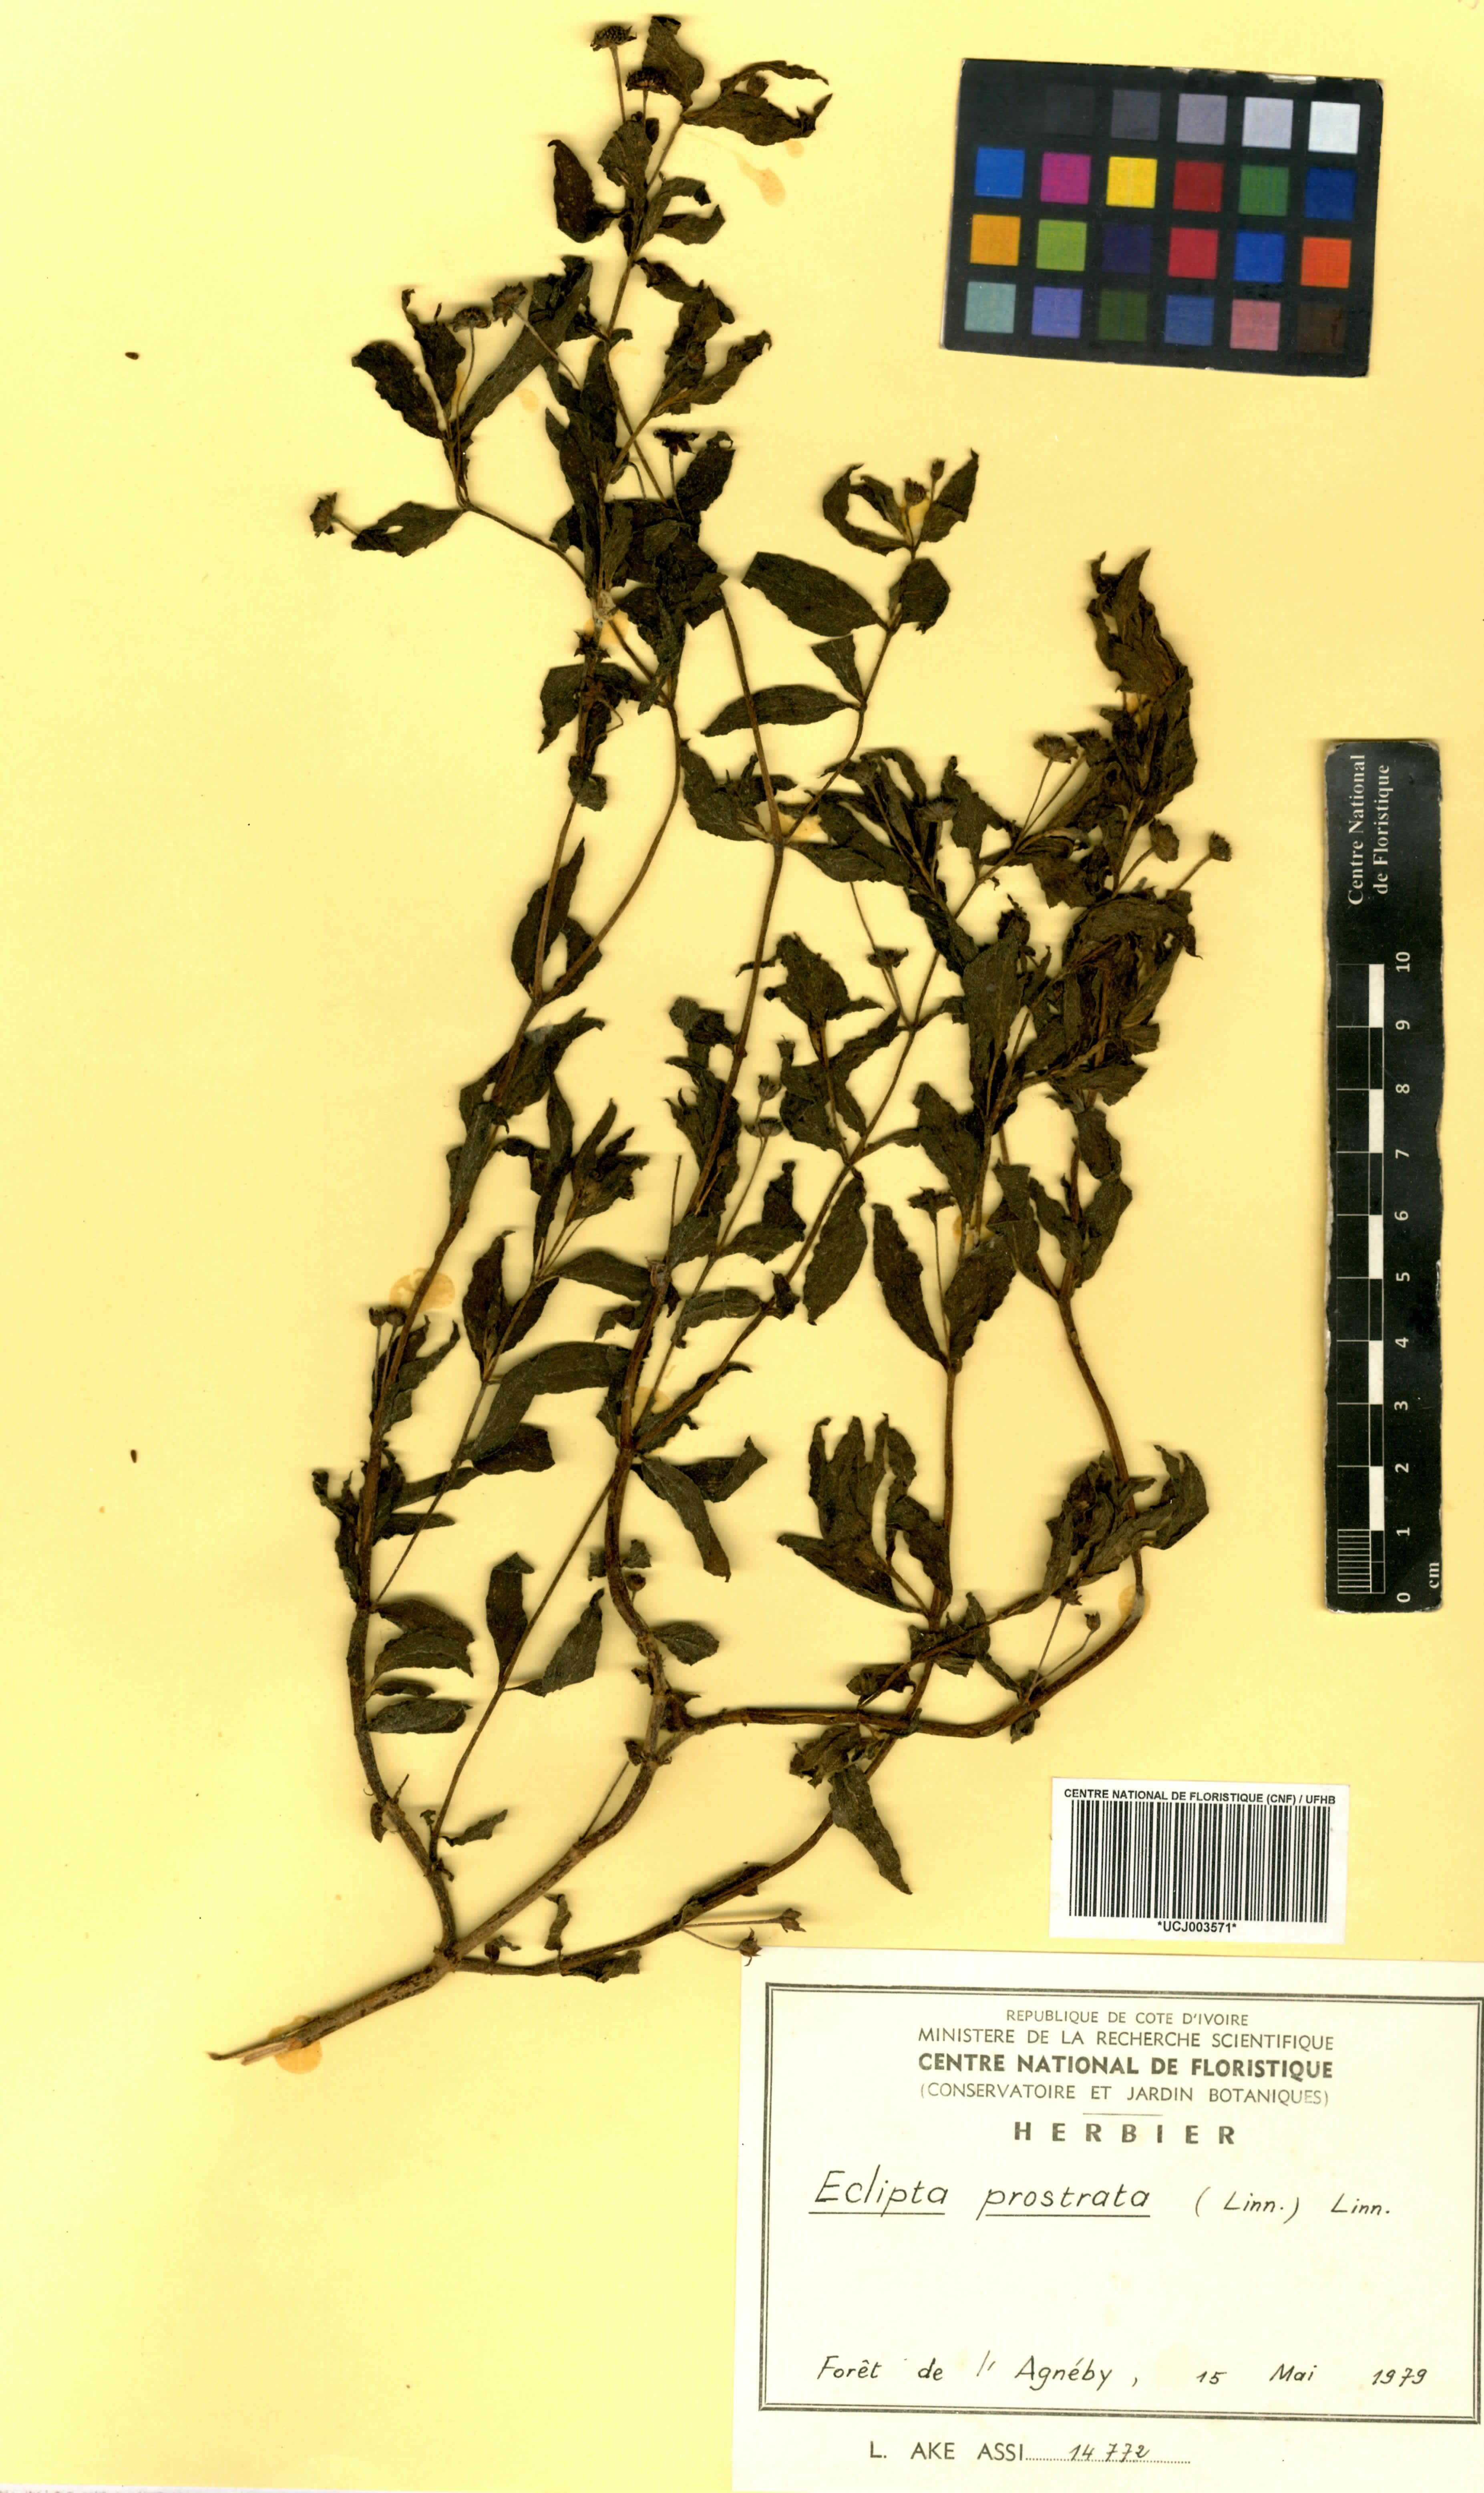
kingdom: Plantae
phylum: Tracheophyta
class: Magnoliopsida
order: Asterales
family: Asteraceae
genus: Eclipta
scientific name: Eclipta prostrata
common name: False daisy
